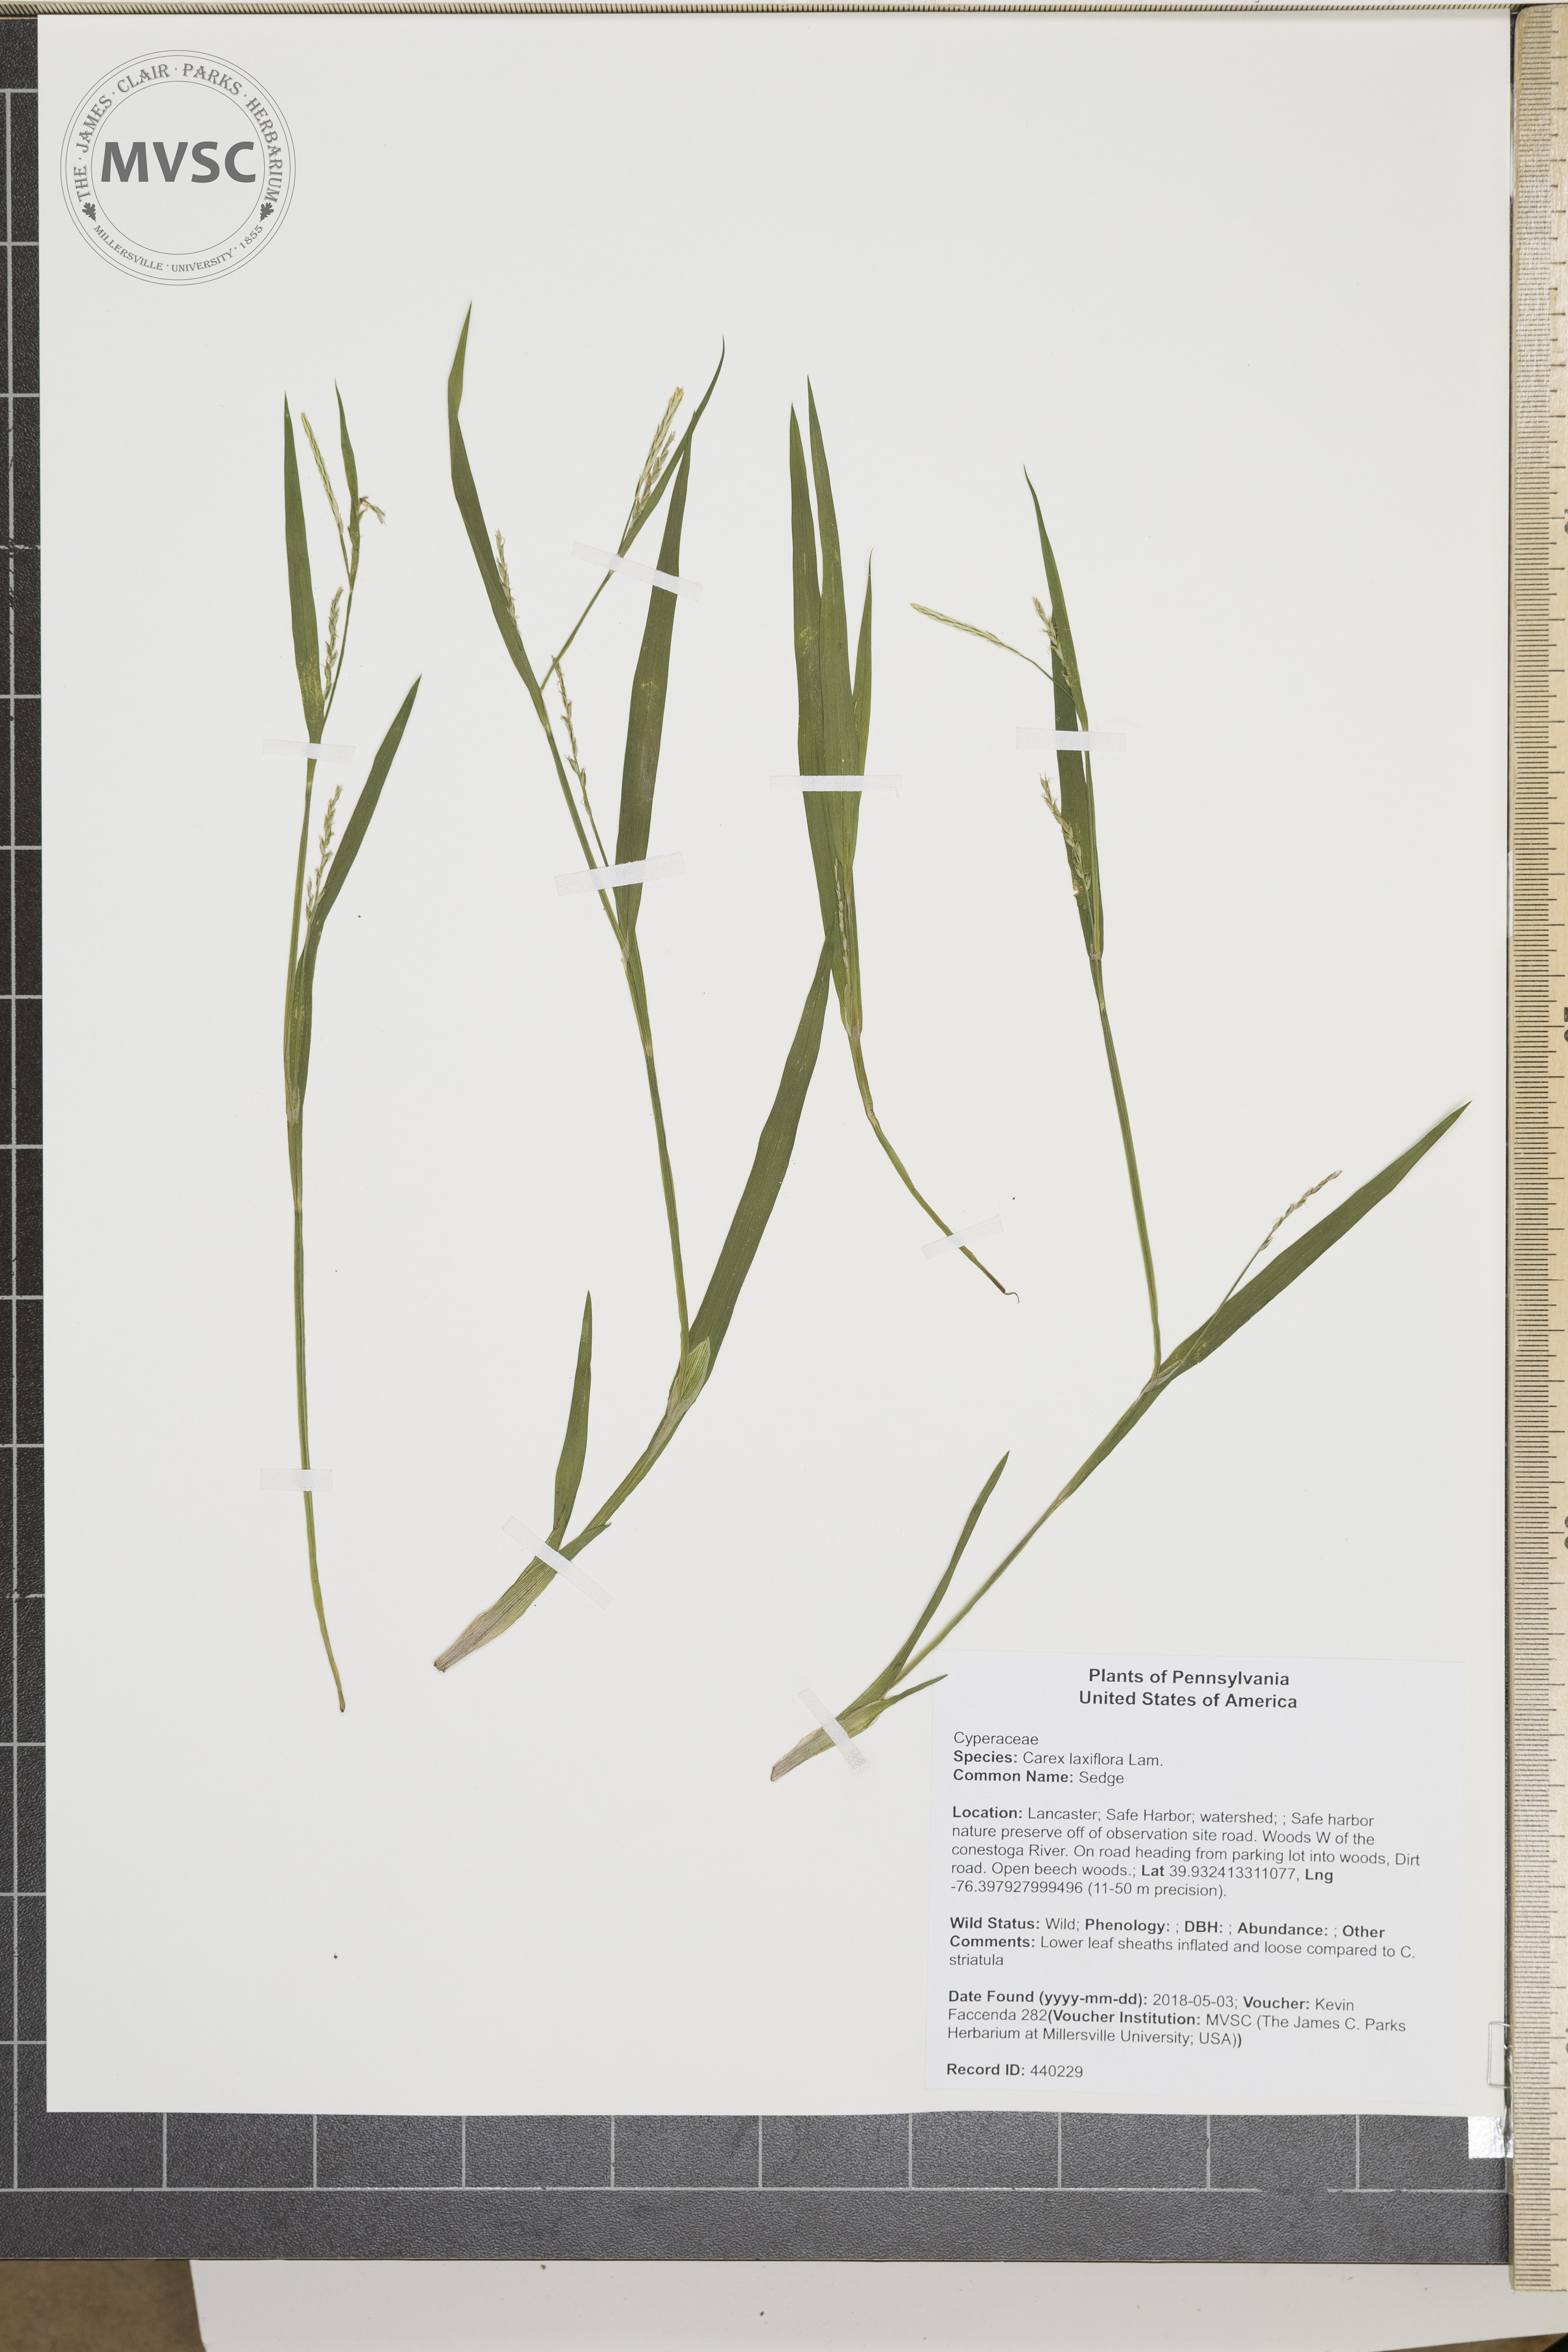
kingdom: Plantae
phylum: Tracheophyta
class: Liliopsida
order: Poales
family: Cyperaceae
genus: Carex
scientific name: Carex laxiflora
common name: Sedge
